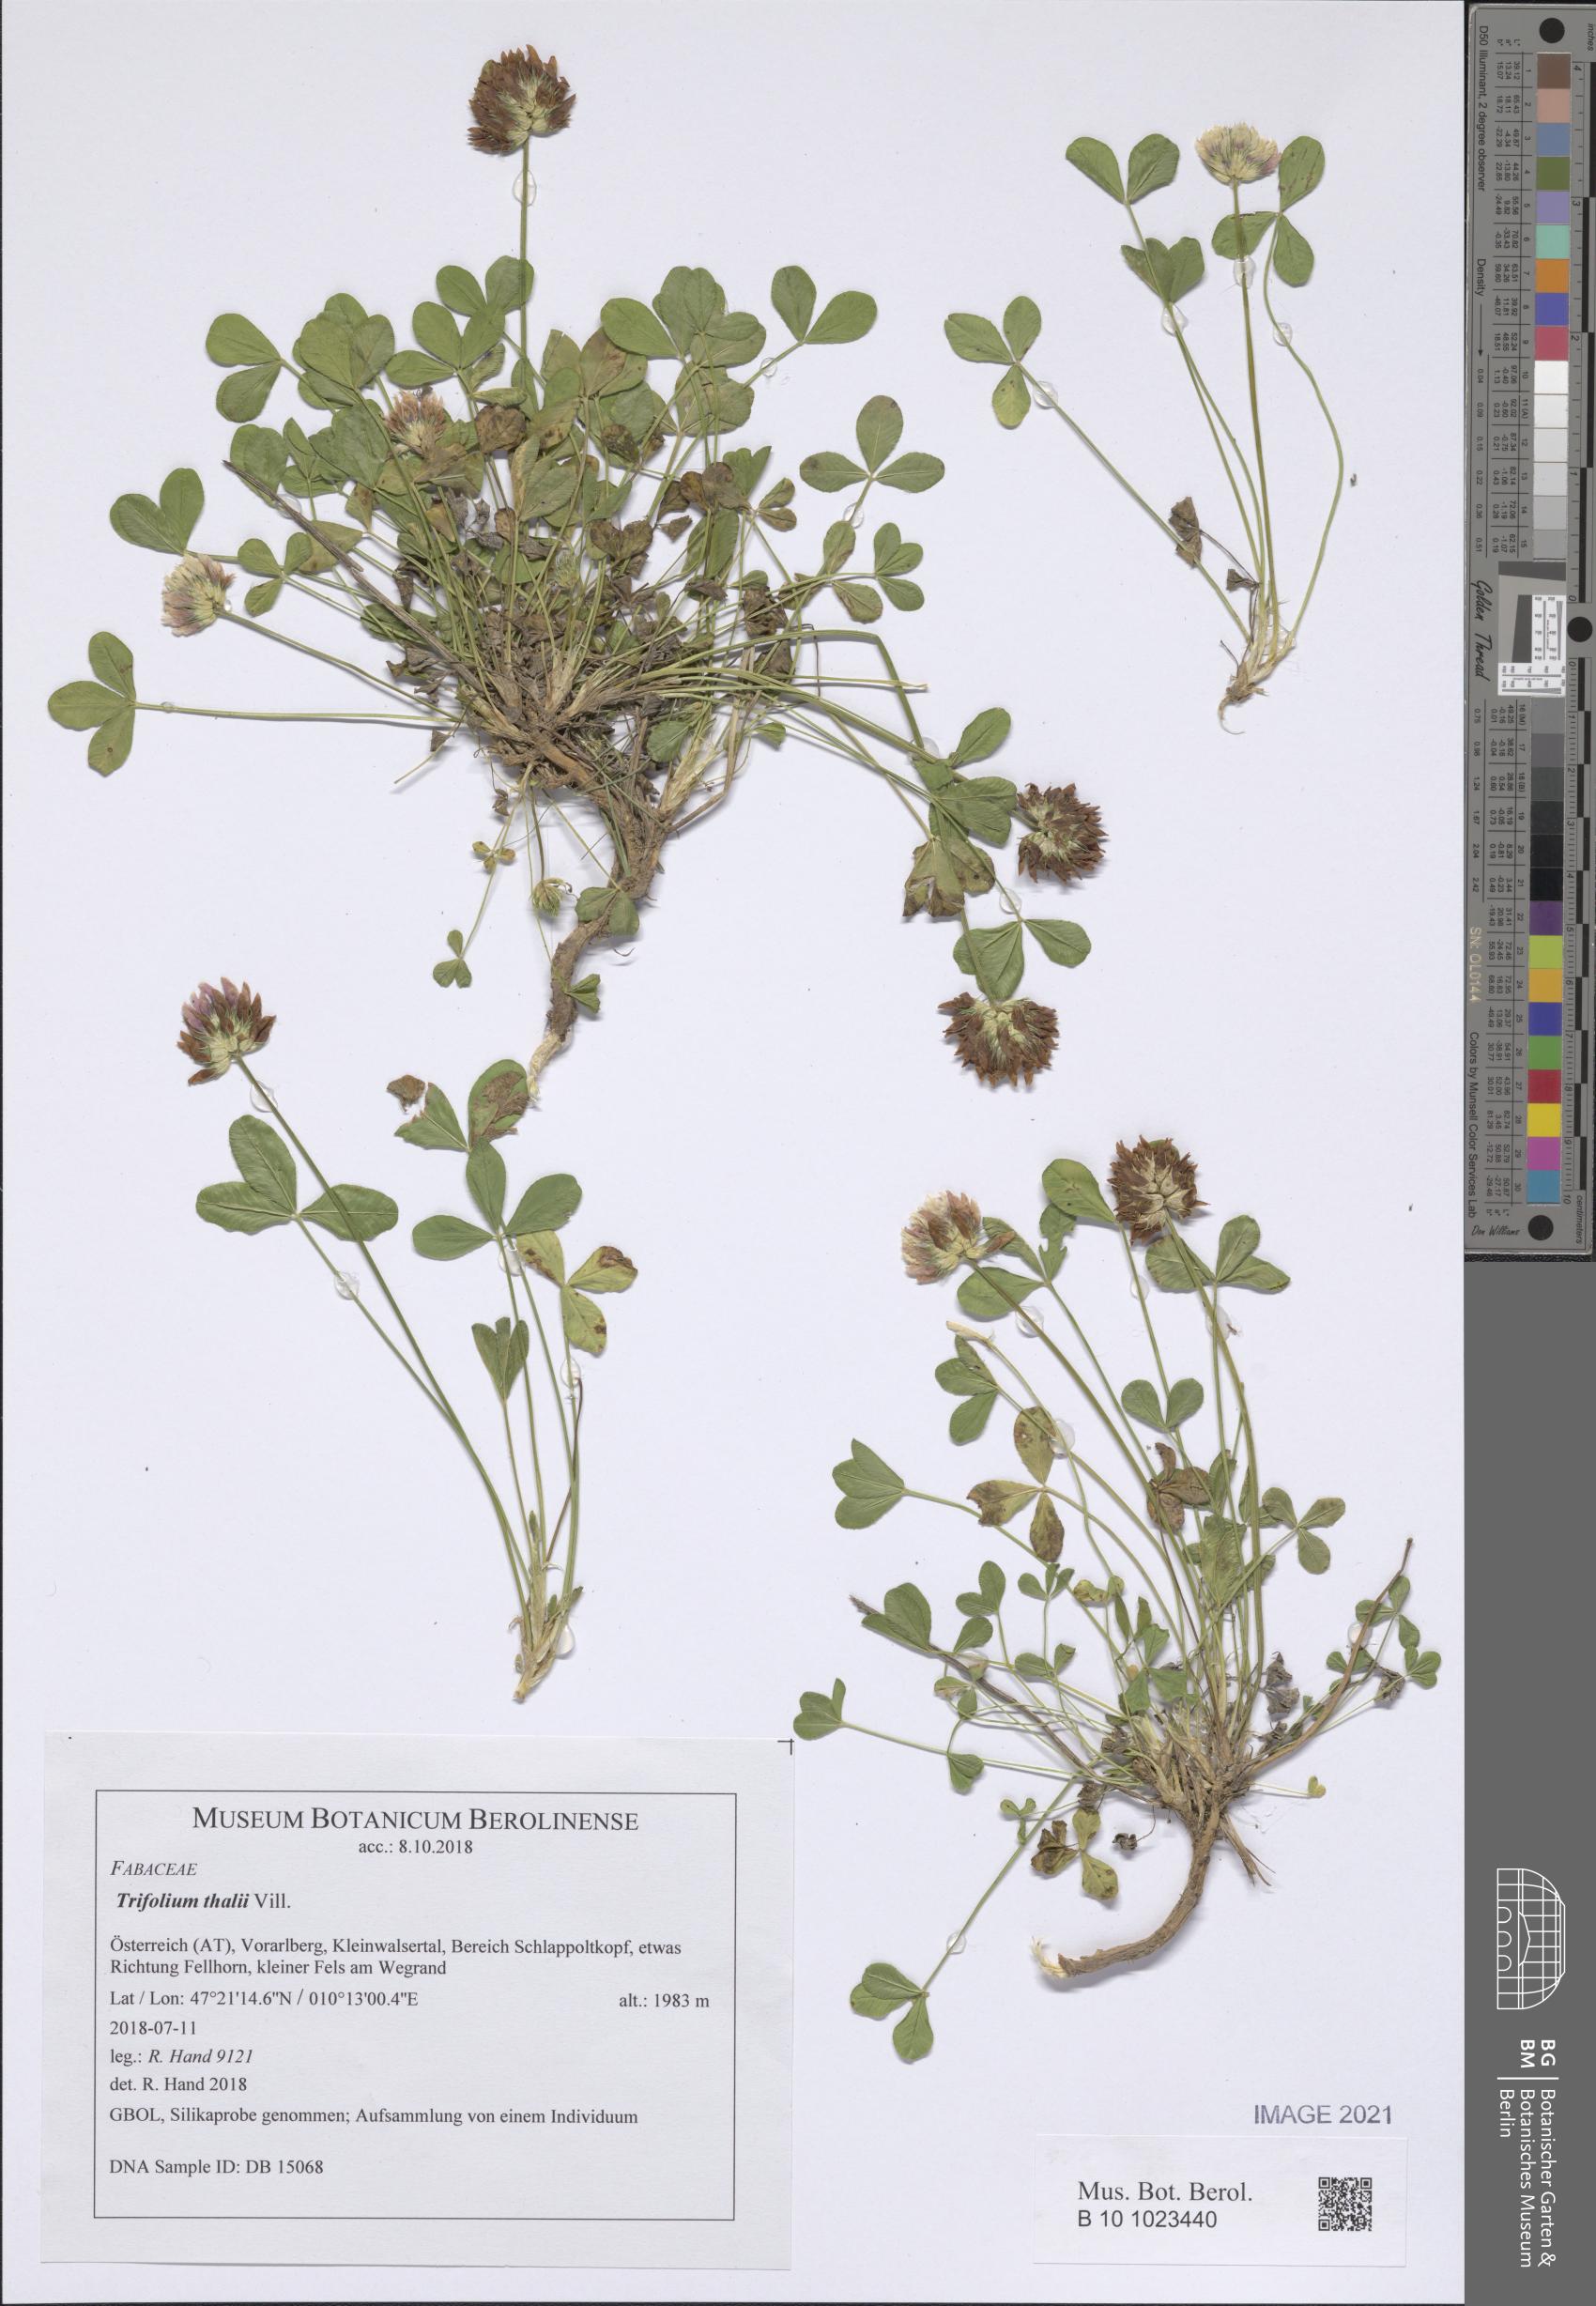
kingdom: Plantae
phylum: Tracheophyta
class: Magnoliopsida
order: Fabales
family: Fabaceae
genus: Trifolium
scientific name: Trifolium thalii
